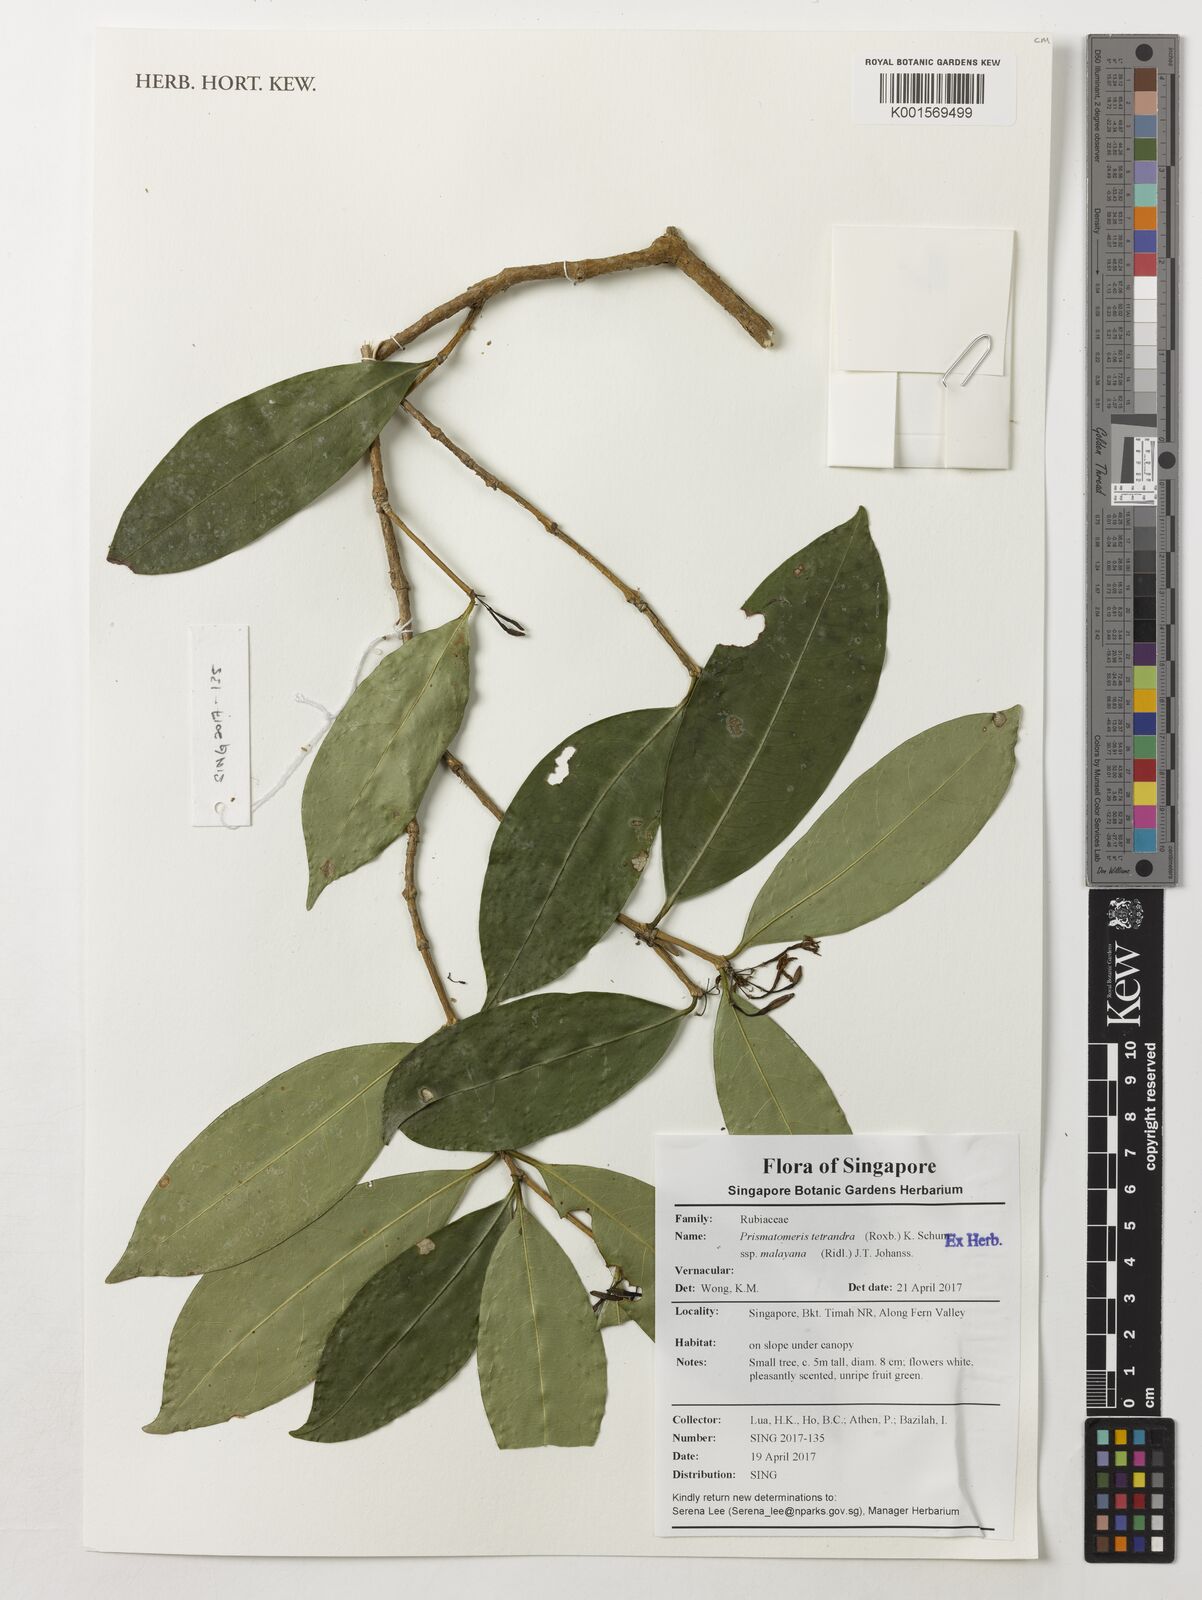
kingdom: Plantae
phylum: Tracheophyta
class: Magnoliopsida
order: Gentianales
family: Rubiaceae
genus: Prismatomeris
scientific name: Prismatomeris tetrandra
